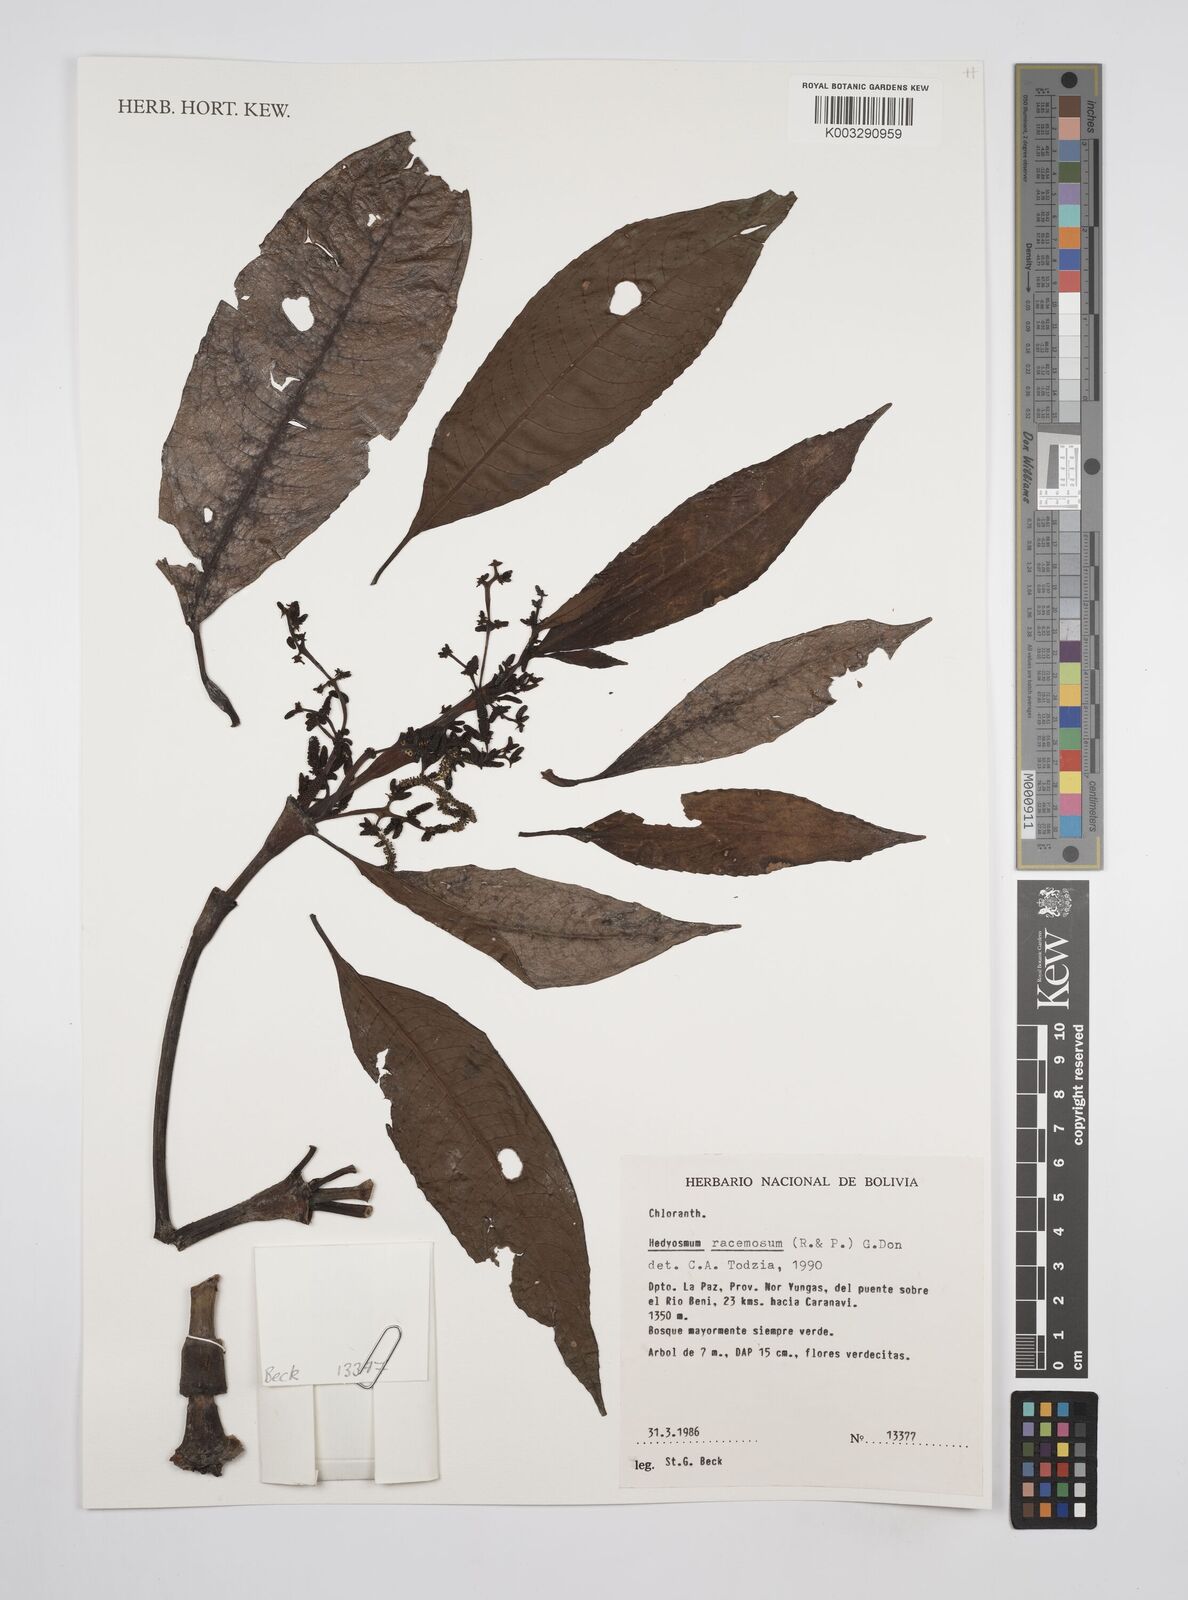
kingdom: Plantae
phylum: Tracheophyta
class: Magnoliopsida
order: Chloranthales
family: Chloranthaceae
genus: Hedyosmum
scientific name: Hedyosmum racemosum
